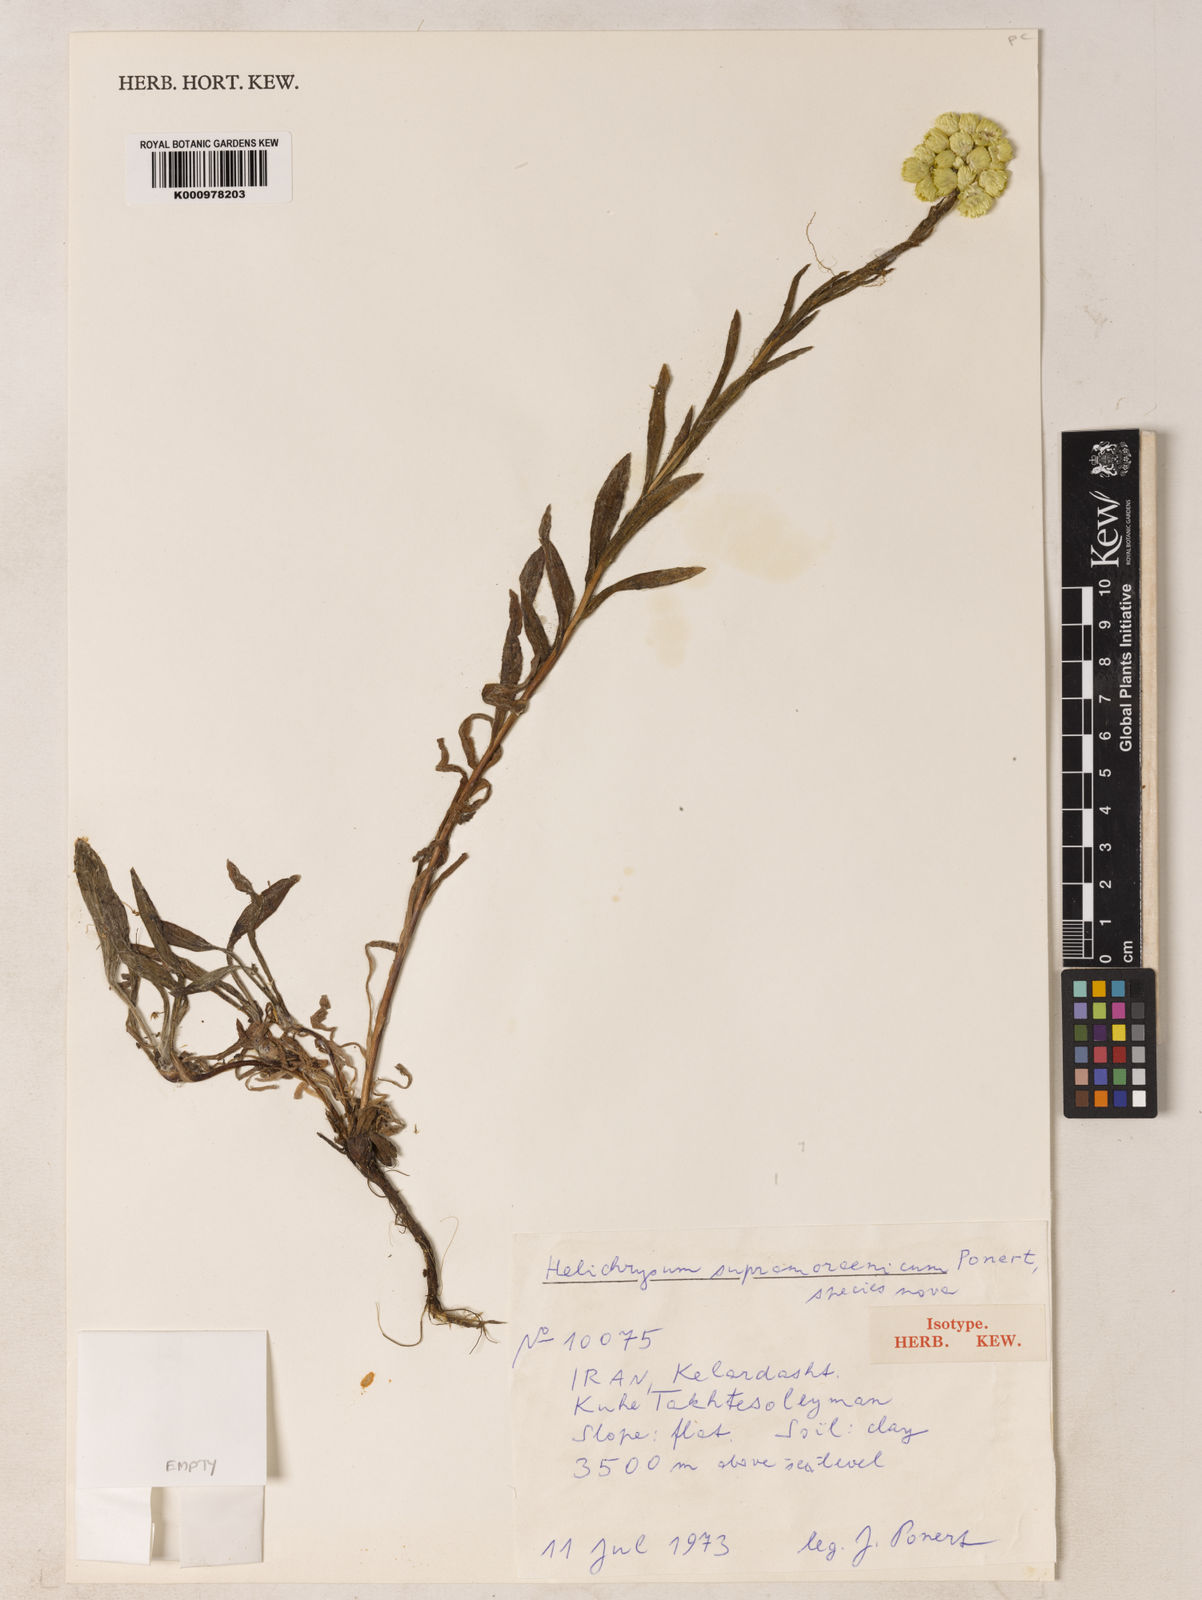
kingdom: Plantae
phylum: Tracheophyta
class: Magnoliopsida
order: Asterales
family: Asteraceae
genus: Helichrysum
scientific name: Helichrysum
